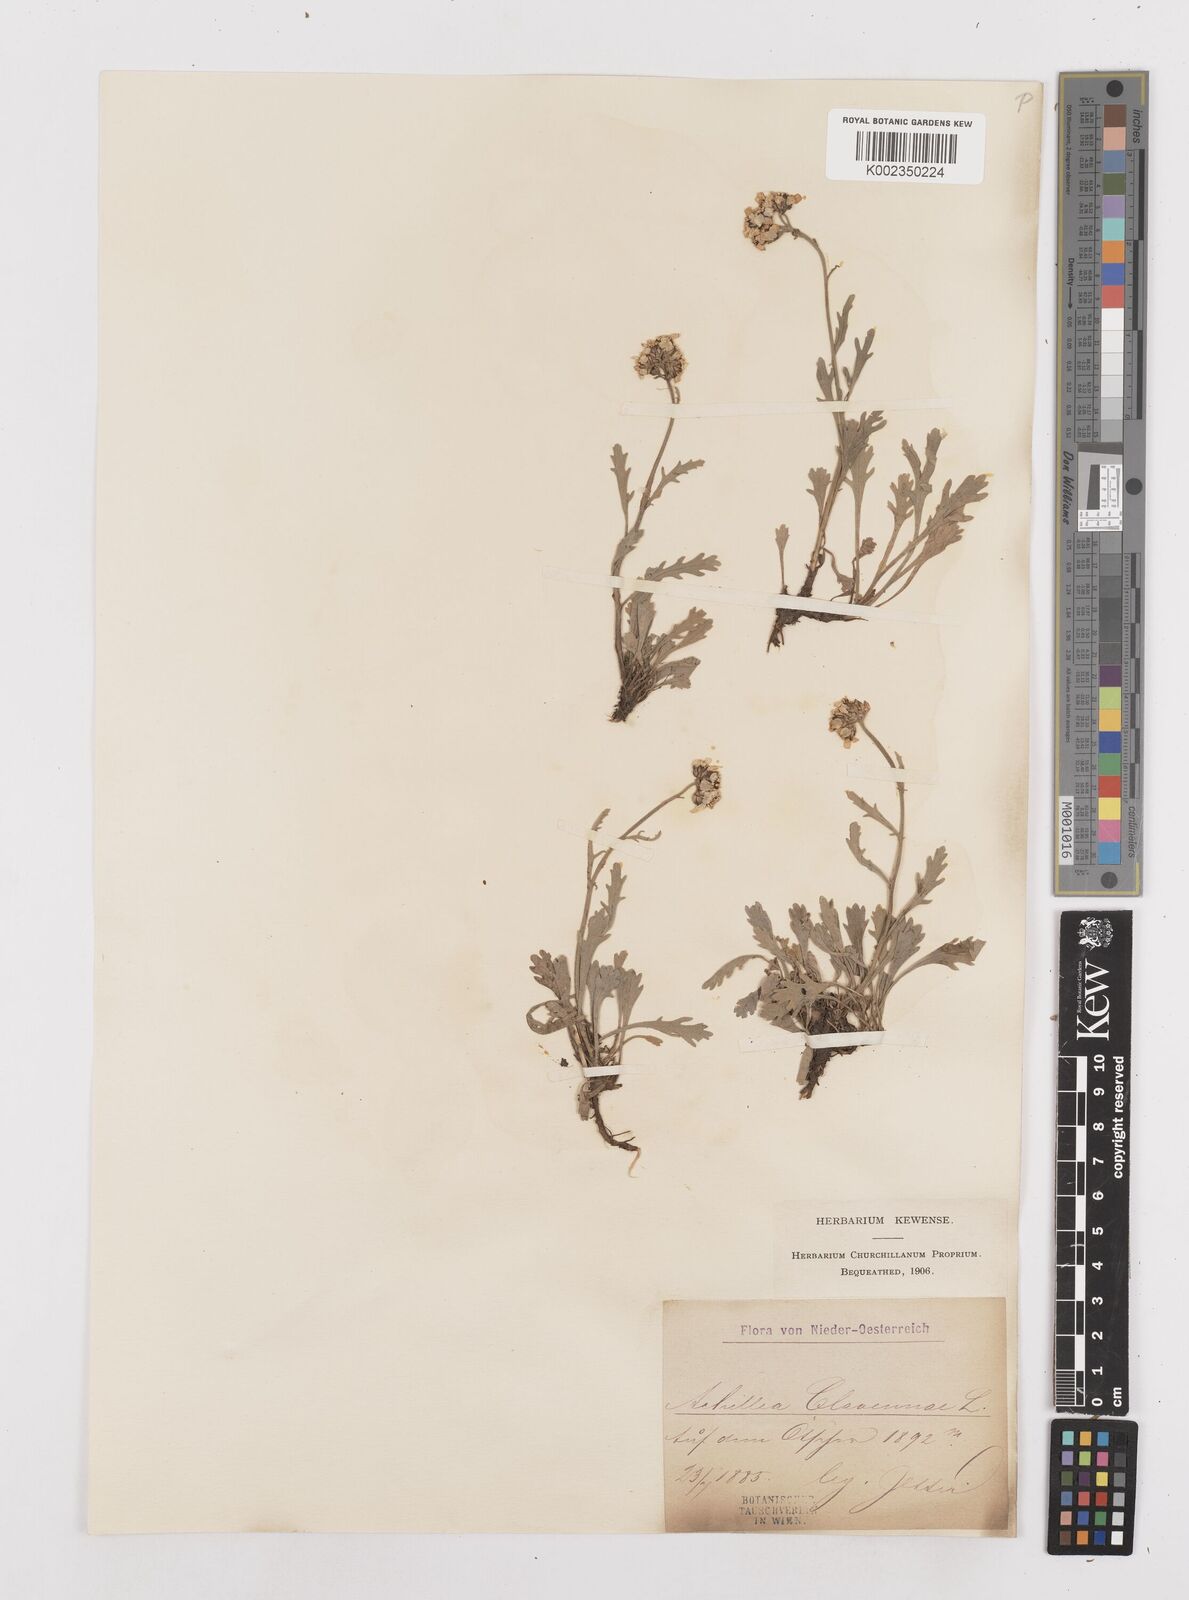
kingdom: Plantae
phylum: Tracheophyta
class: Magnoliopsida
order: Asterales
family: Asteraceae
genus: Achillea
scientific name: Achillea clavennae
